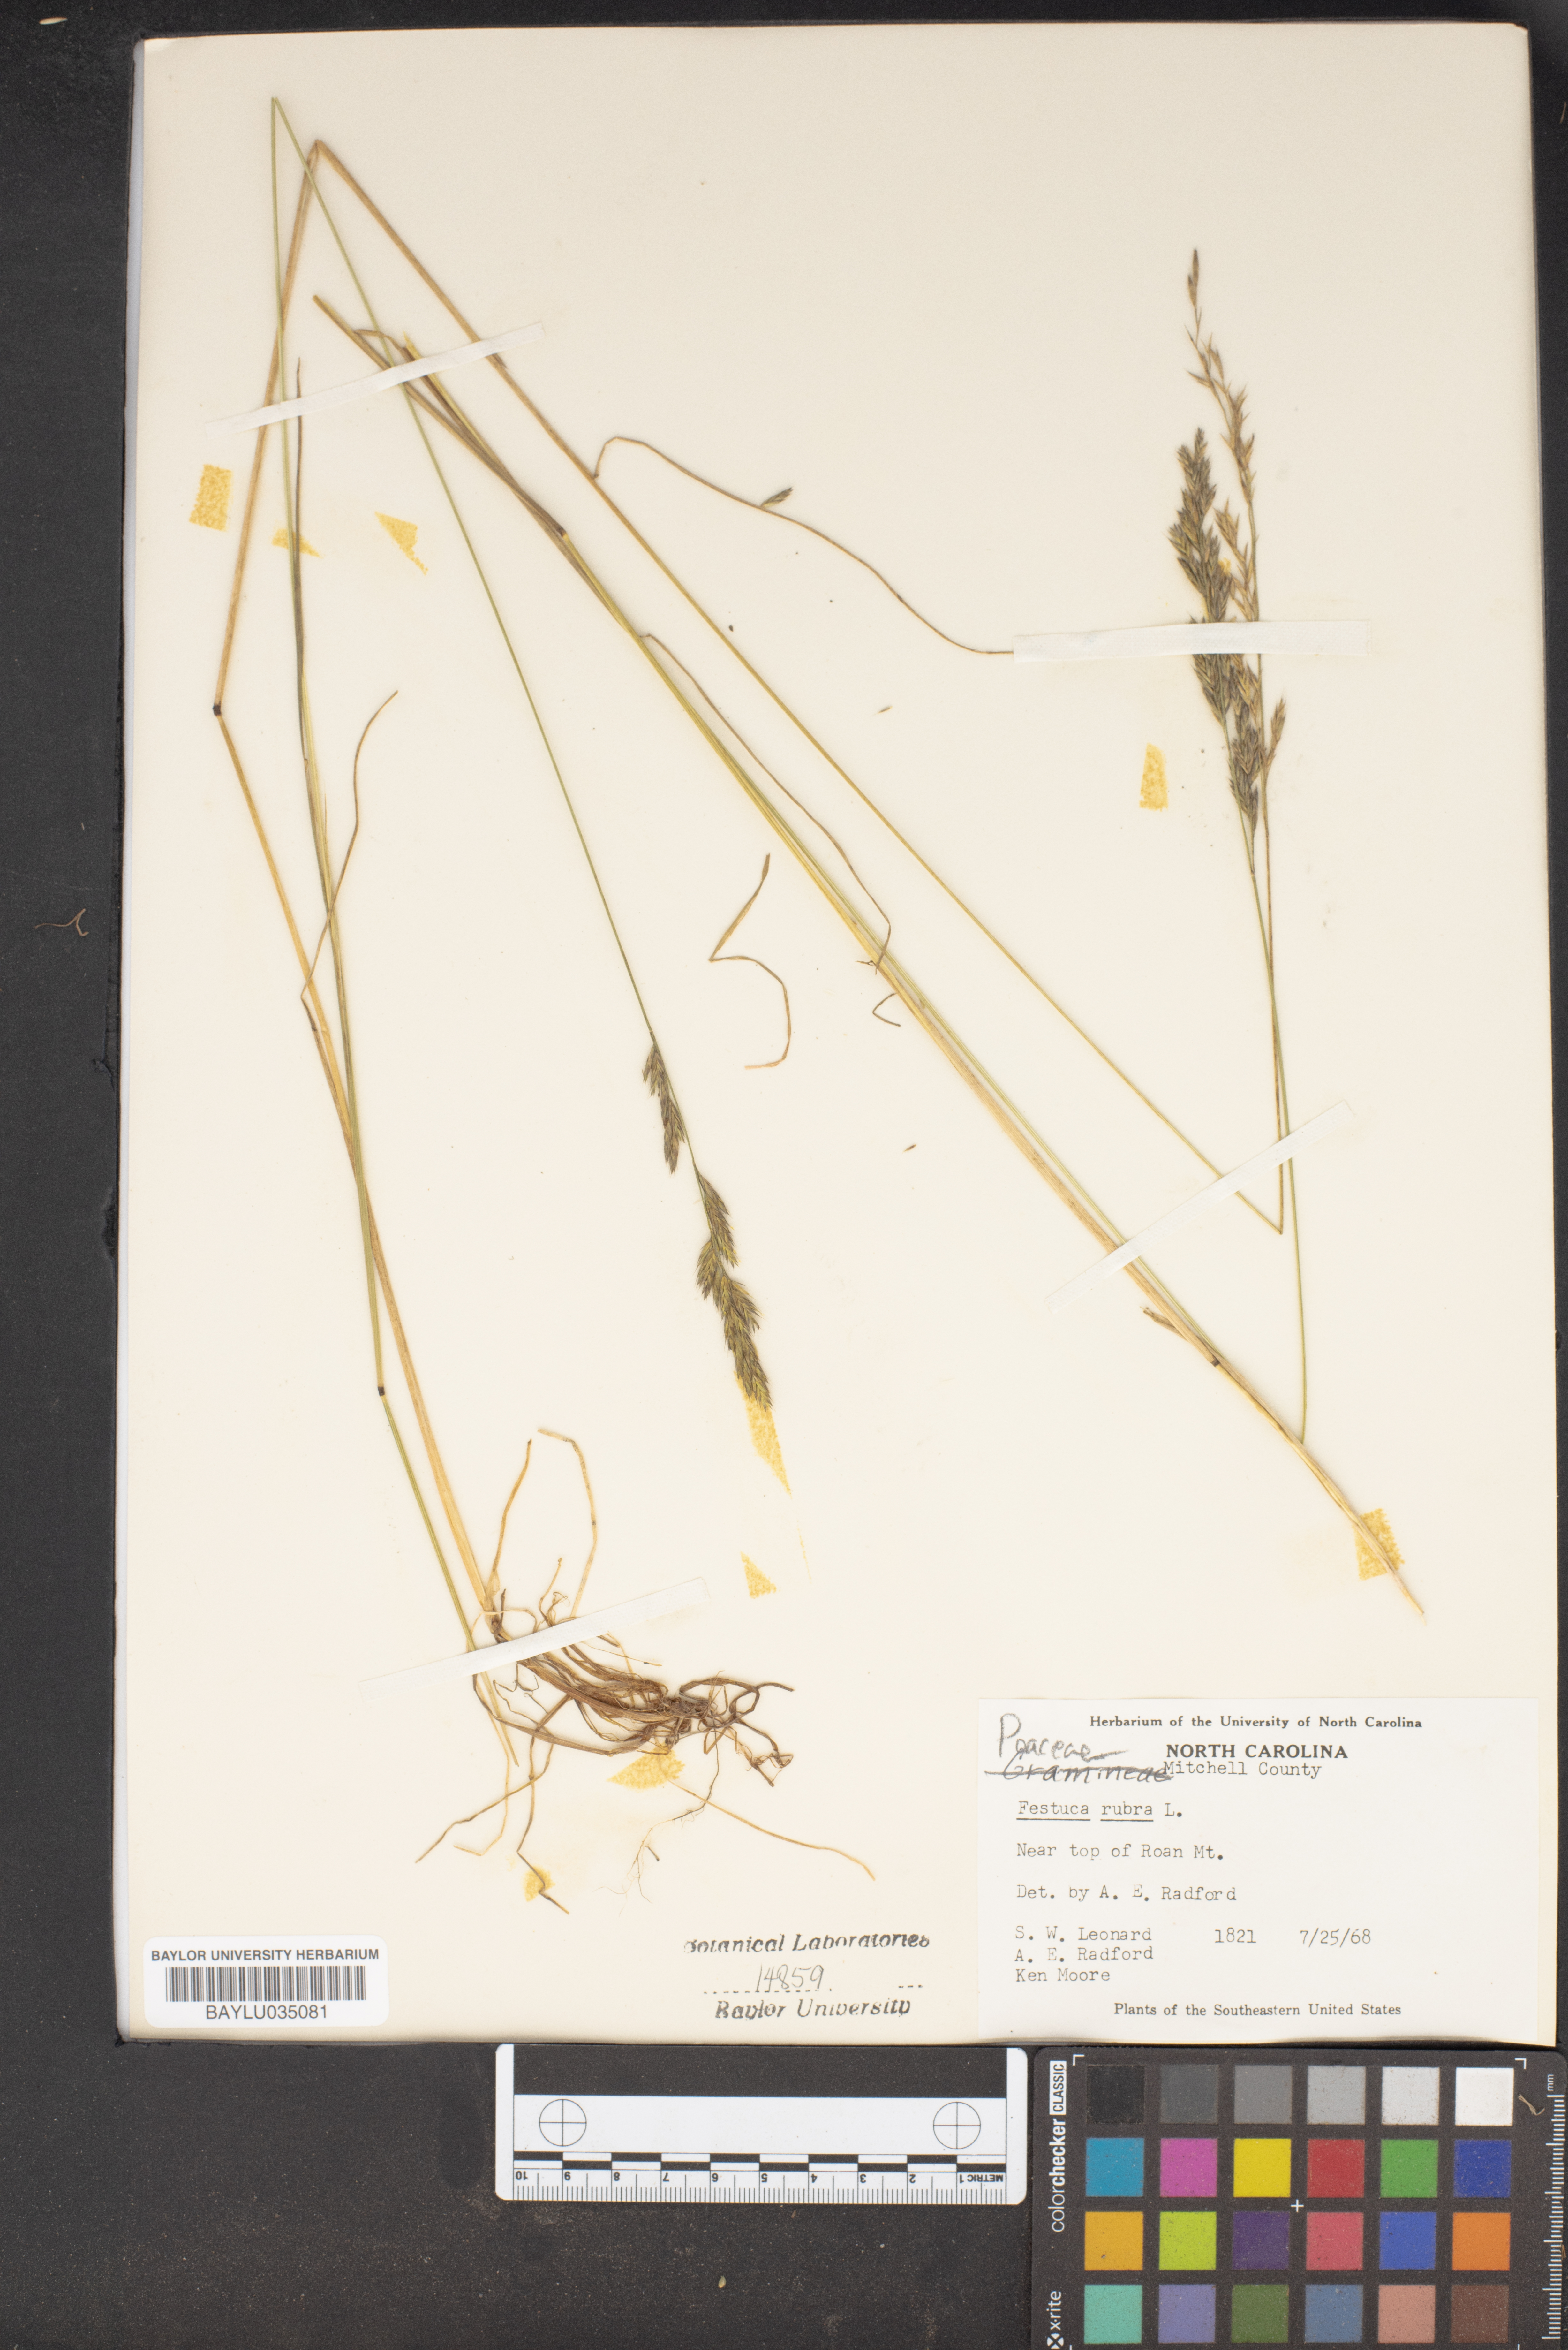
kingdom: Plantae
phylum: Tracheophyta
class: Liliopsida
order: Poales
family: Poaceae
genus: Festuca
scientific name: Festuca rubra
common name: Red fescue
